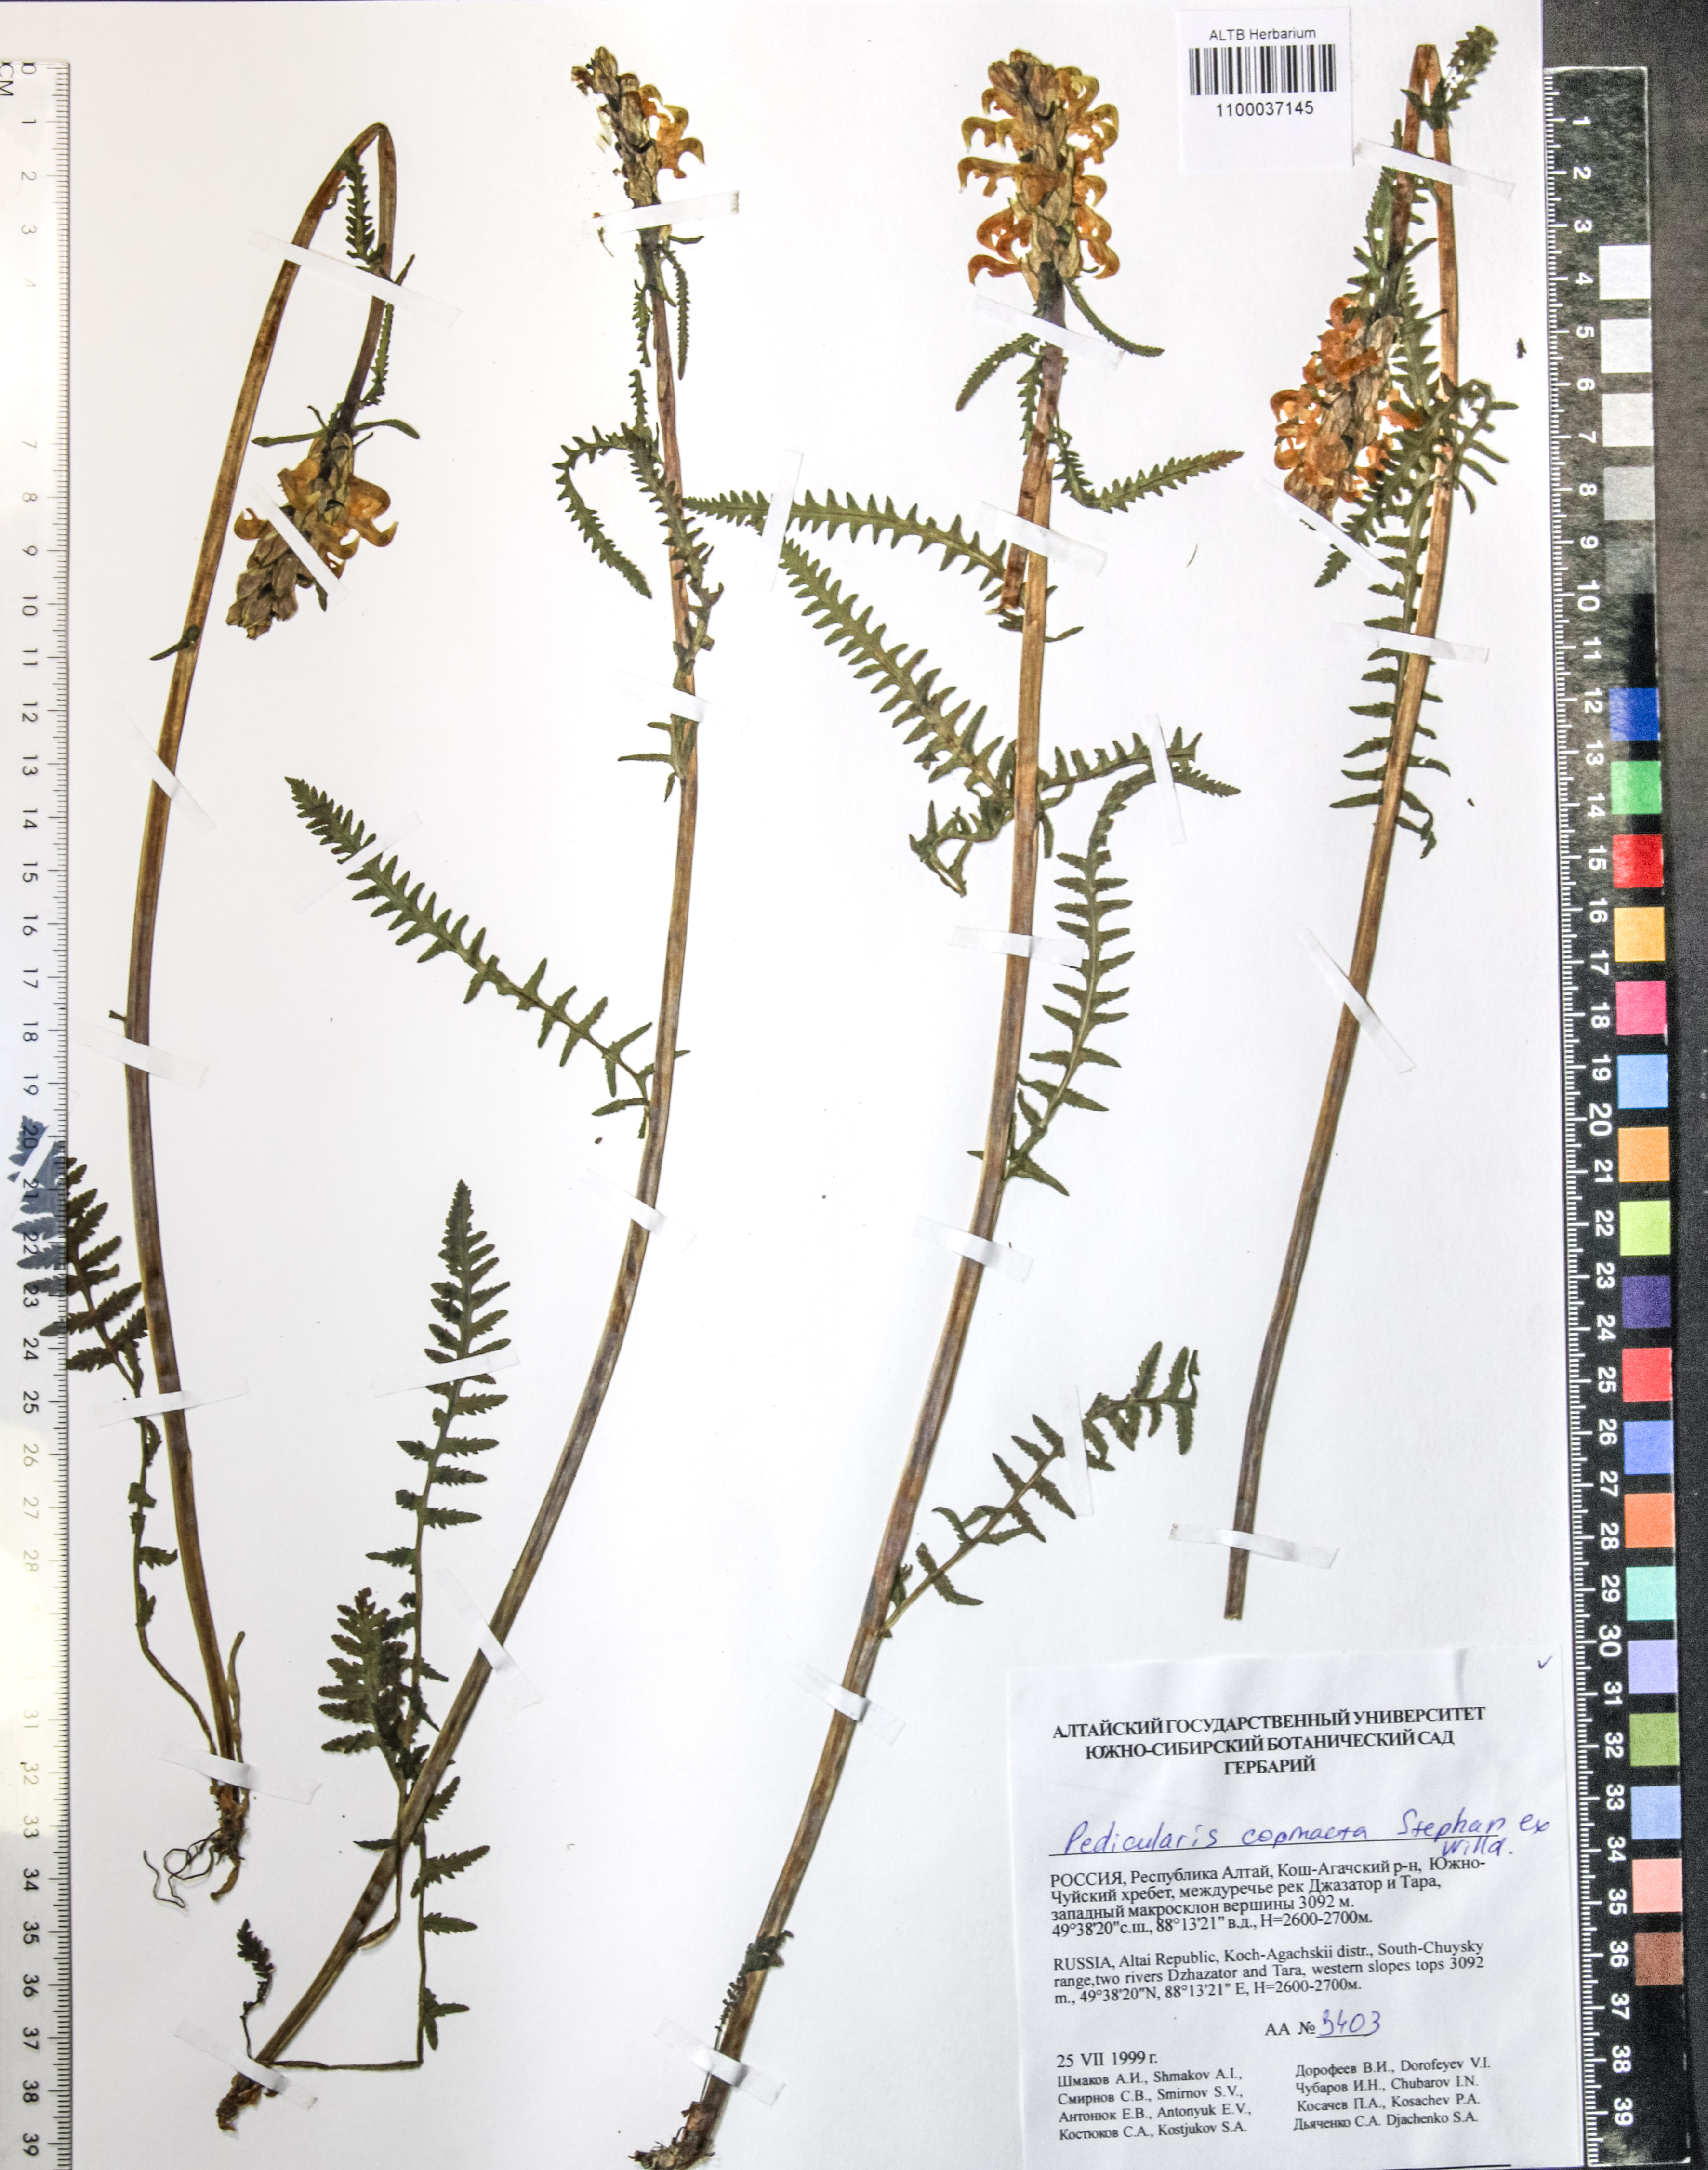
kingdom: Plantae
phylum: Tracheophyta
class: Magnoliopsida
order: Lamiales
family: Orobanchaceae
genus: Pedicularis
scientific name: Pedicularis compacta
